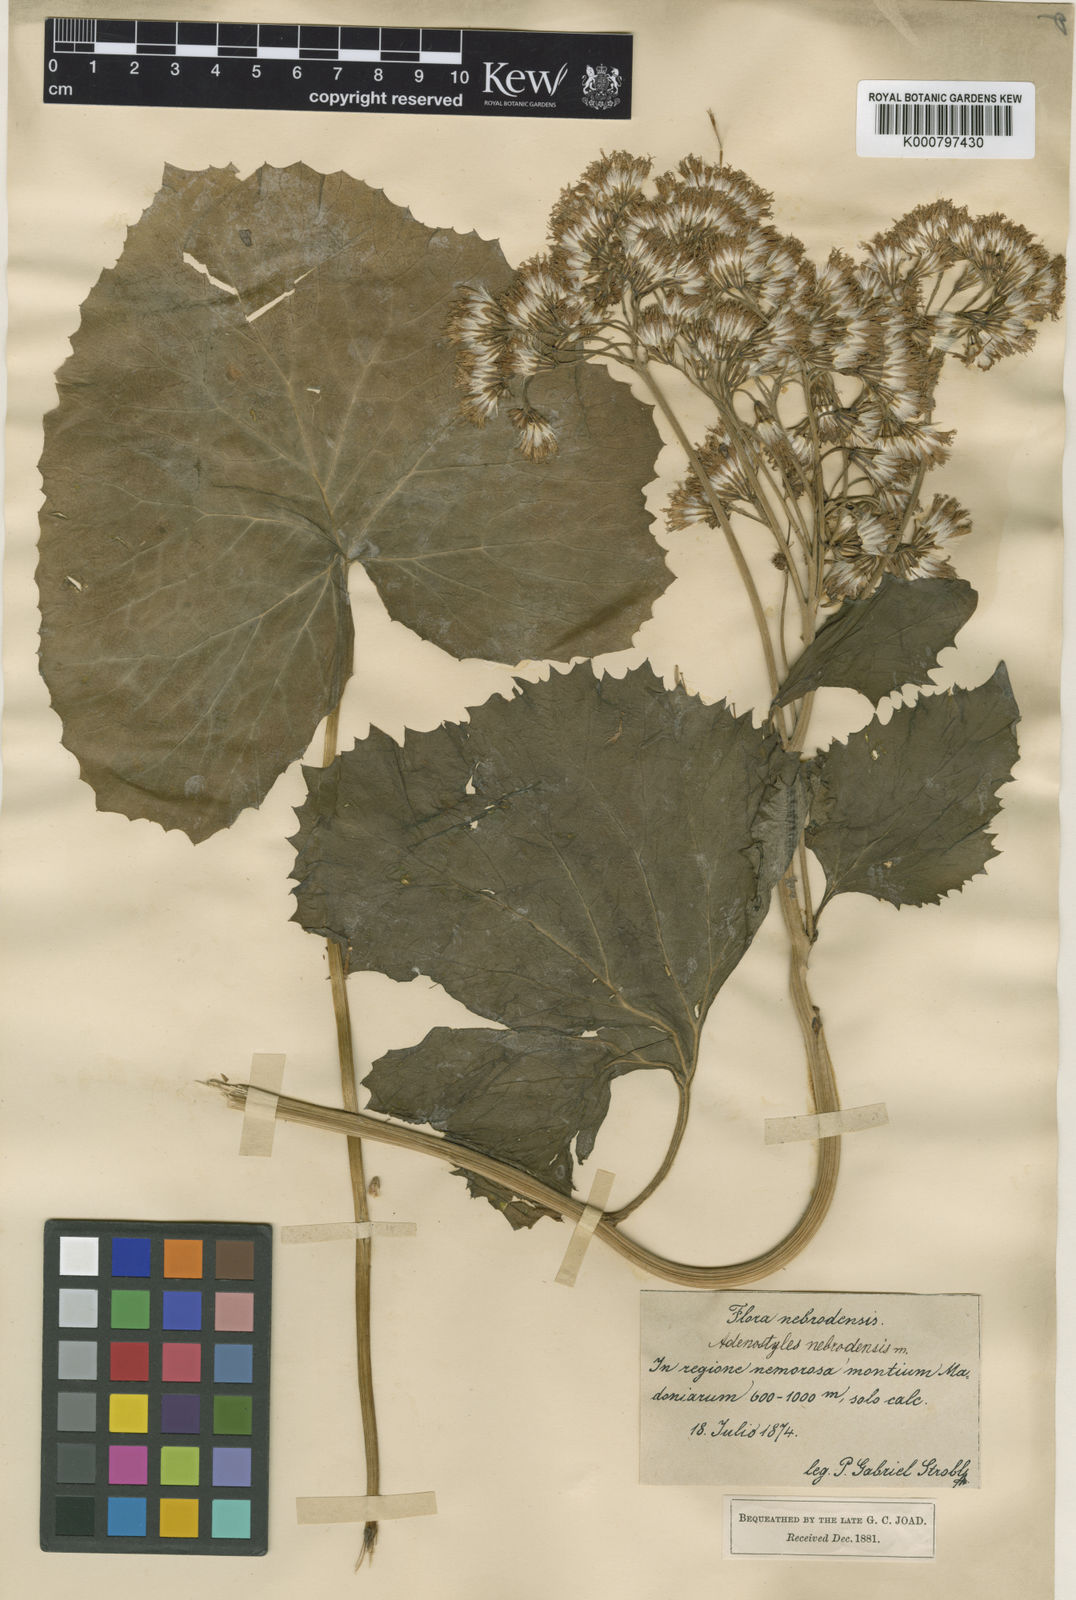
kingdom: Plantae
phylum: Tracheophyta
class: Magnoliopsida
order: Asterales
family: Asteraceae
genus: Linzia
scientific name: Linzia glabra
